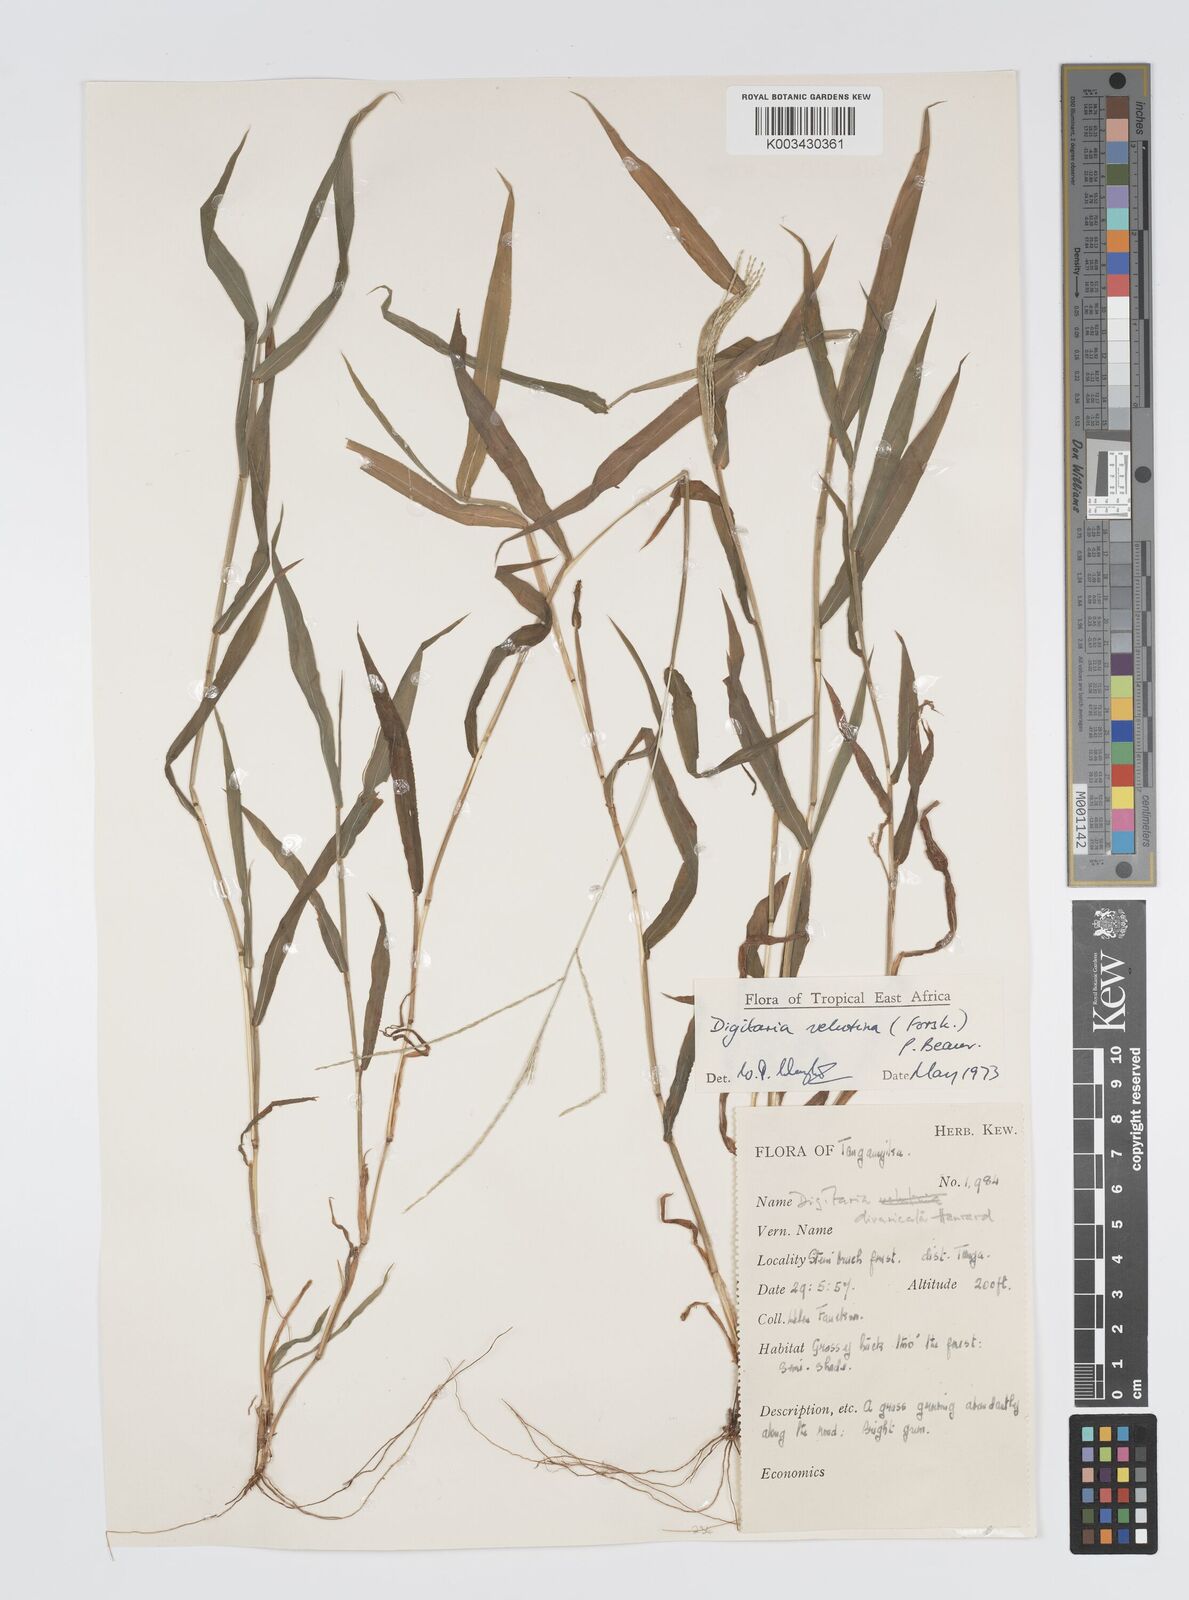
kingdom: Plantae
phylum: Tracheophyta
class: Liliopsida
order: Poales
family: Poaceae
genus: Digitaria
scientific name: Digitaria velutina
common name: Long-plume finger grass
